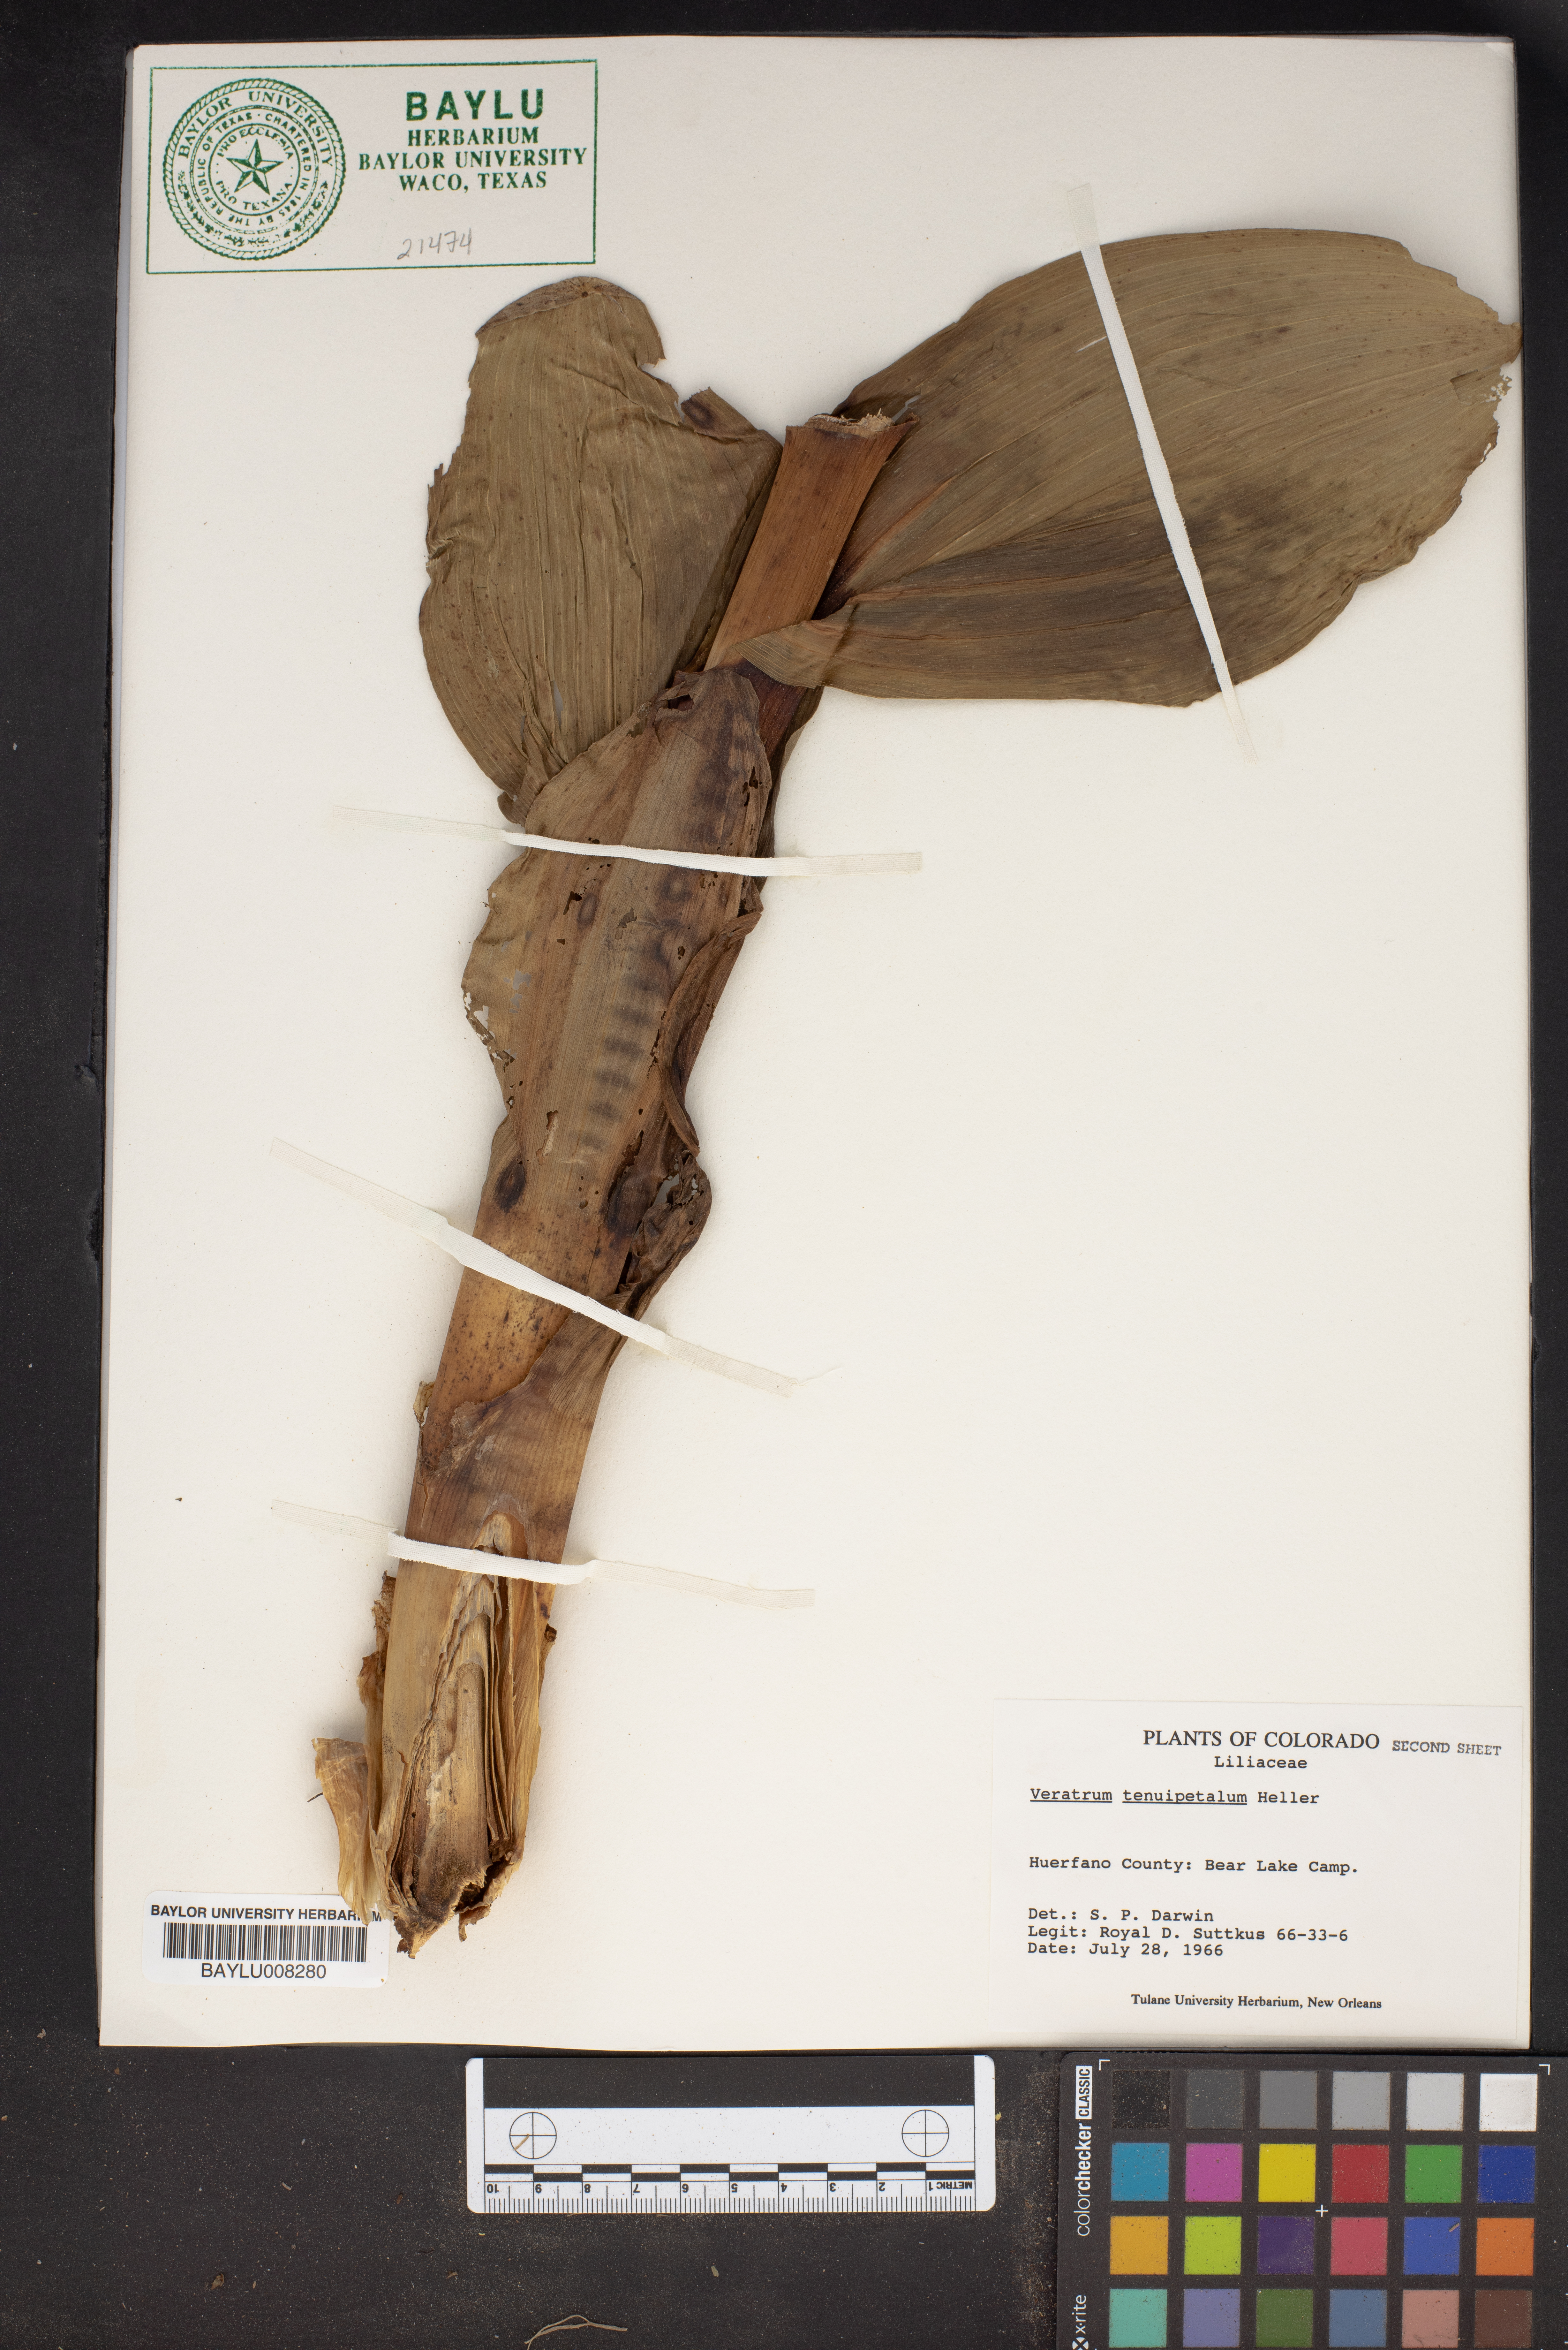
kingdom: Plantae
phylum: Tracheophyta
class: Liliopsida
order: Liliales
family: Melanthiaceae
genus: Veratrum
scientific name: Veratrum californicum
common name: California veratrum
